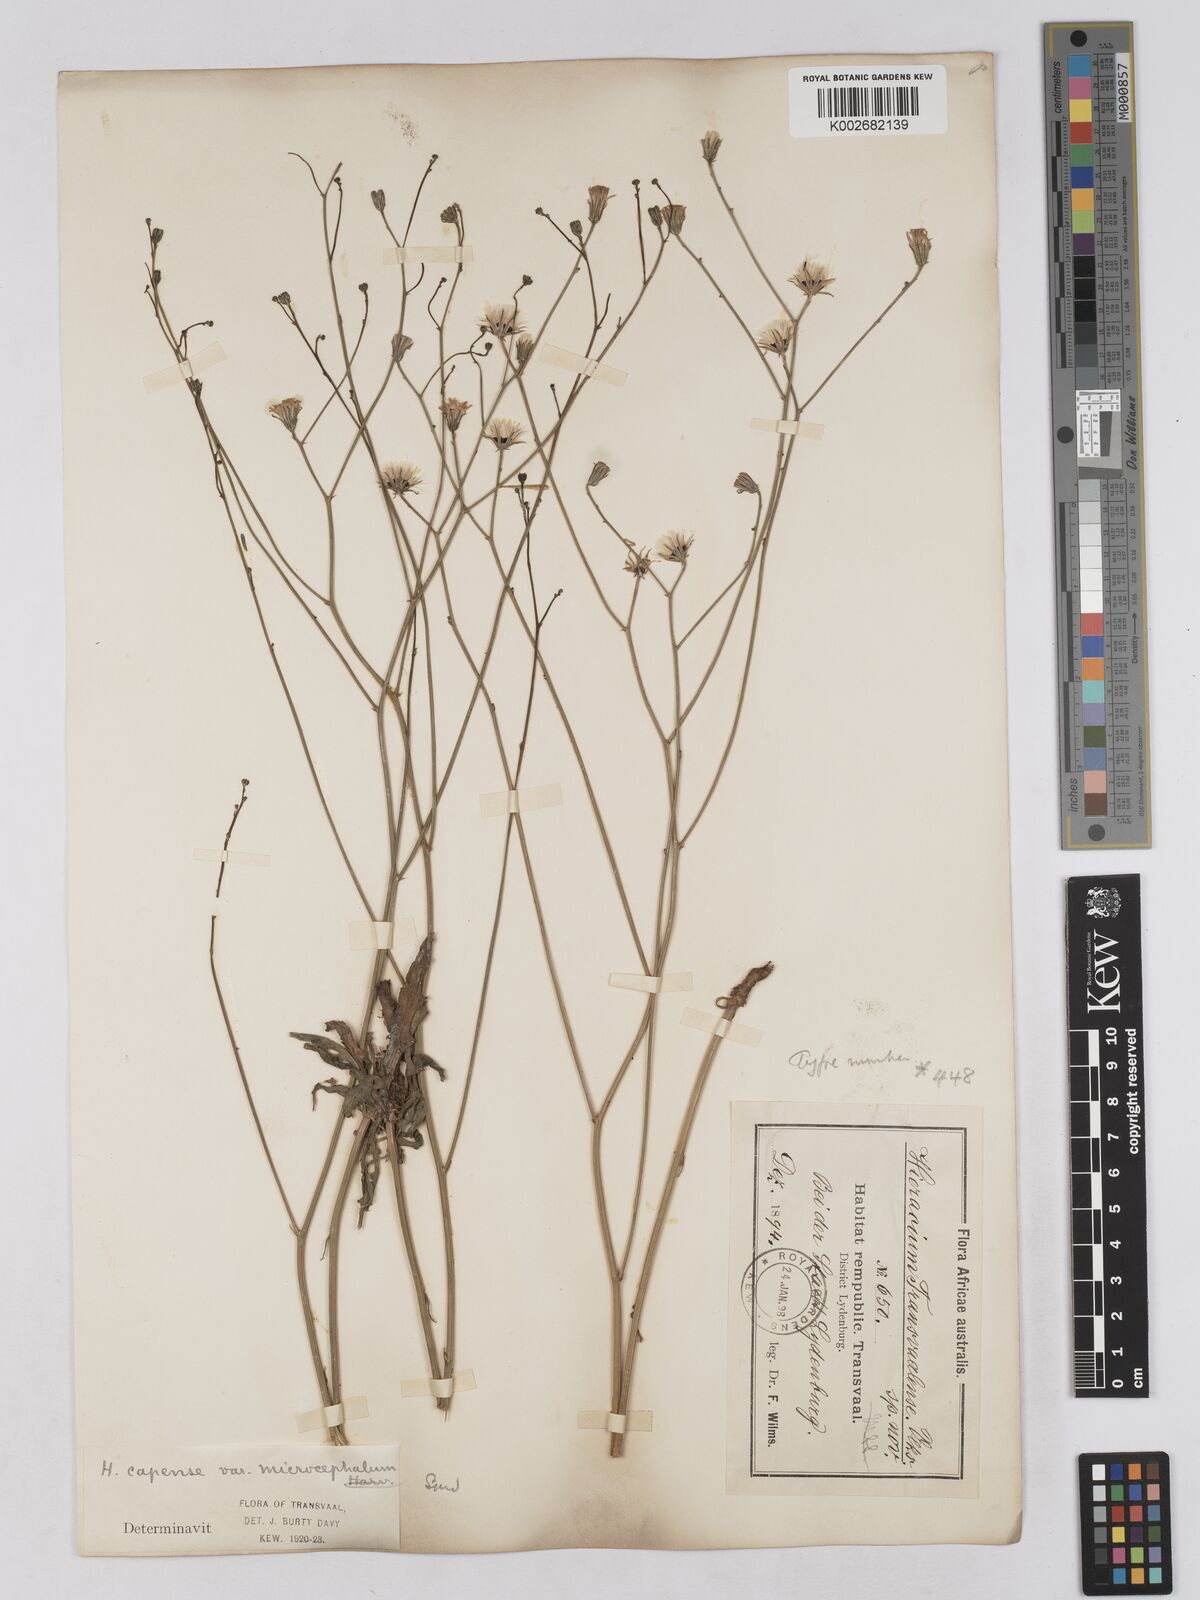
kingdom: Plantae
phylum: Tracheophyta
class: Magnoliopsida
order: Asterales
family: Asteraceae
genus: Tolpis
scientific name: Tolpis capensis
